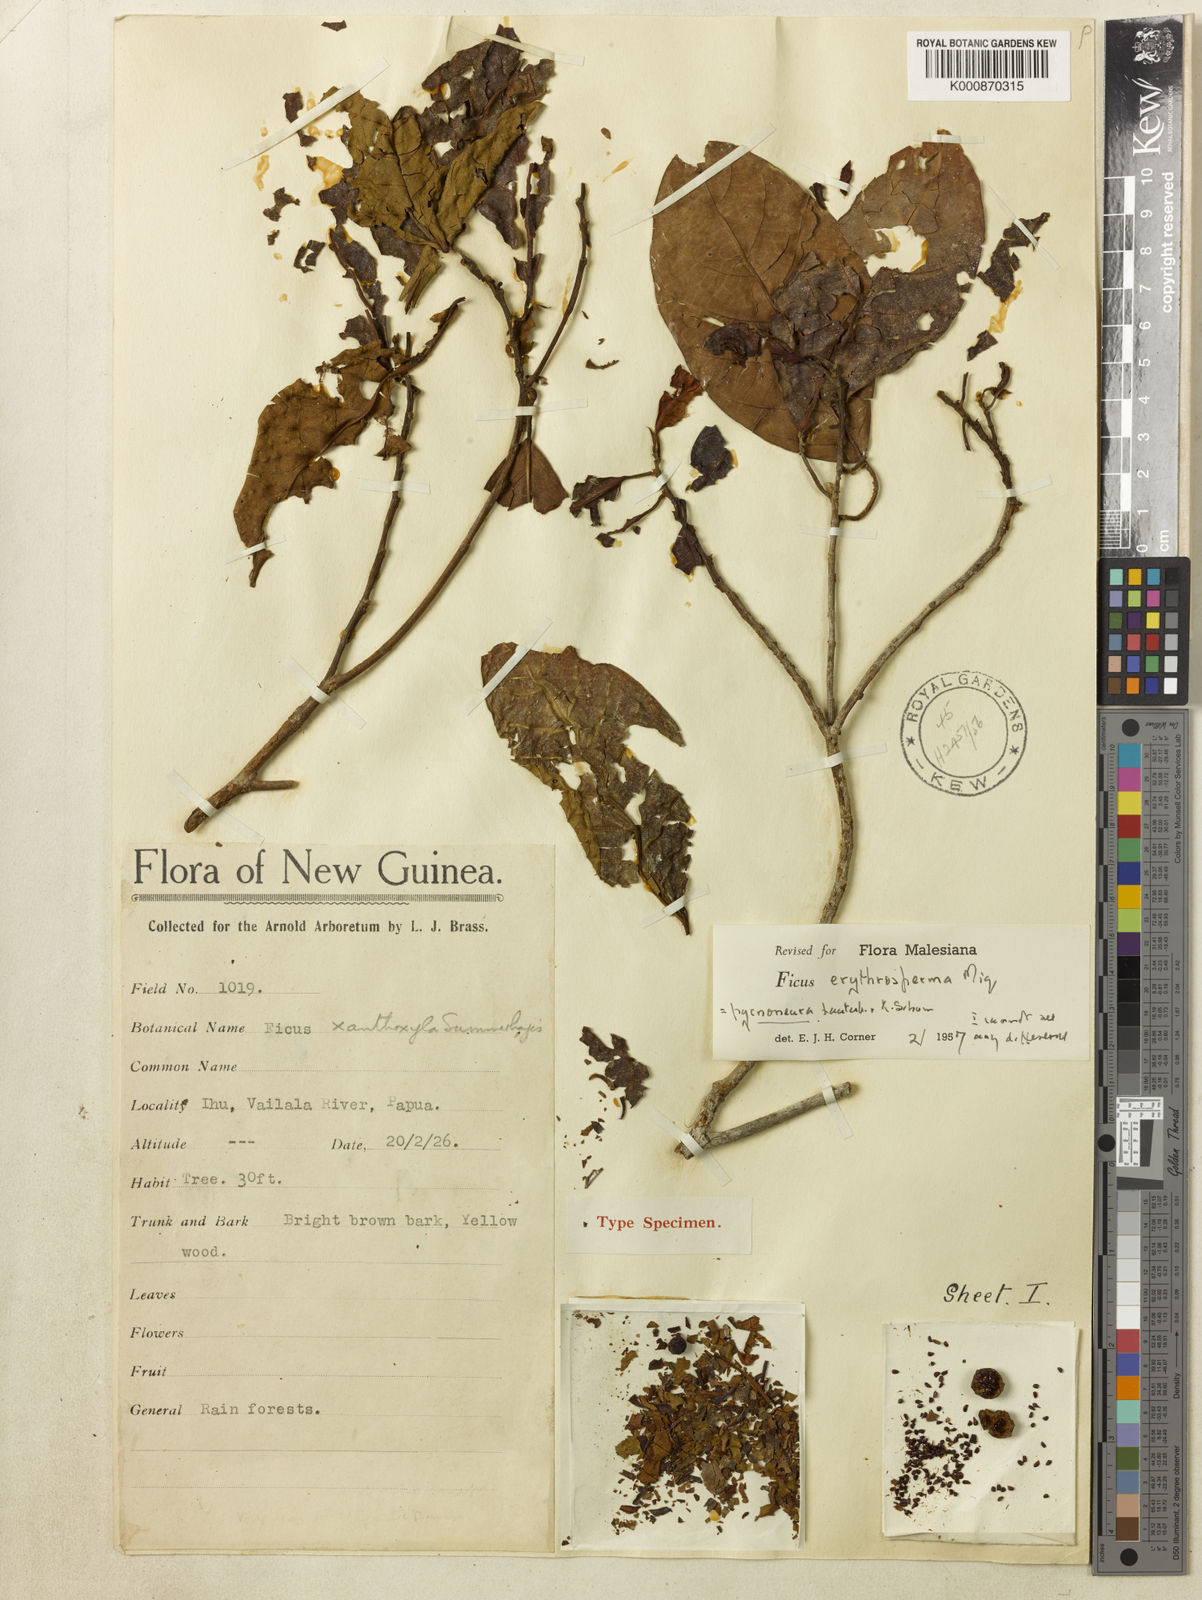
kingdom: Plantae
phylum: Tracheophyta
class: Magnoliopsida
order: Rosales
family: Moraceae
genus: Ficus
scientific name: Ficus erythrosperma
